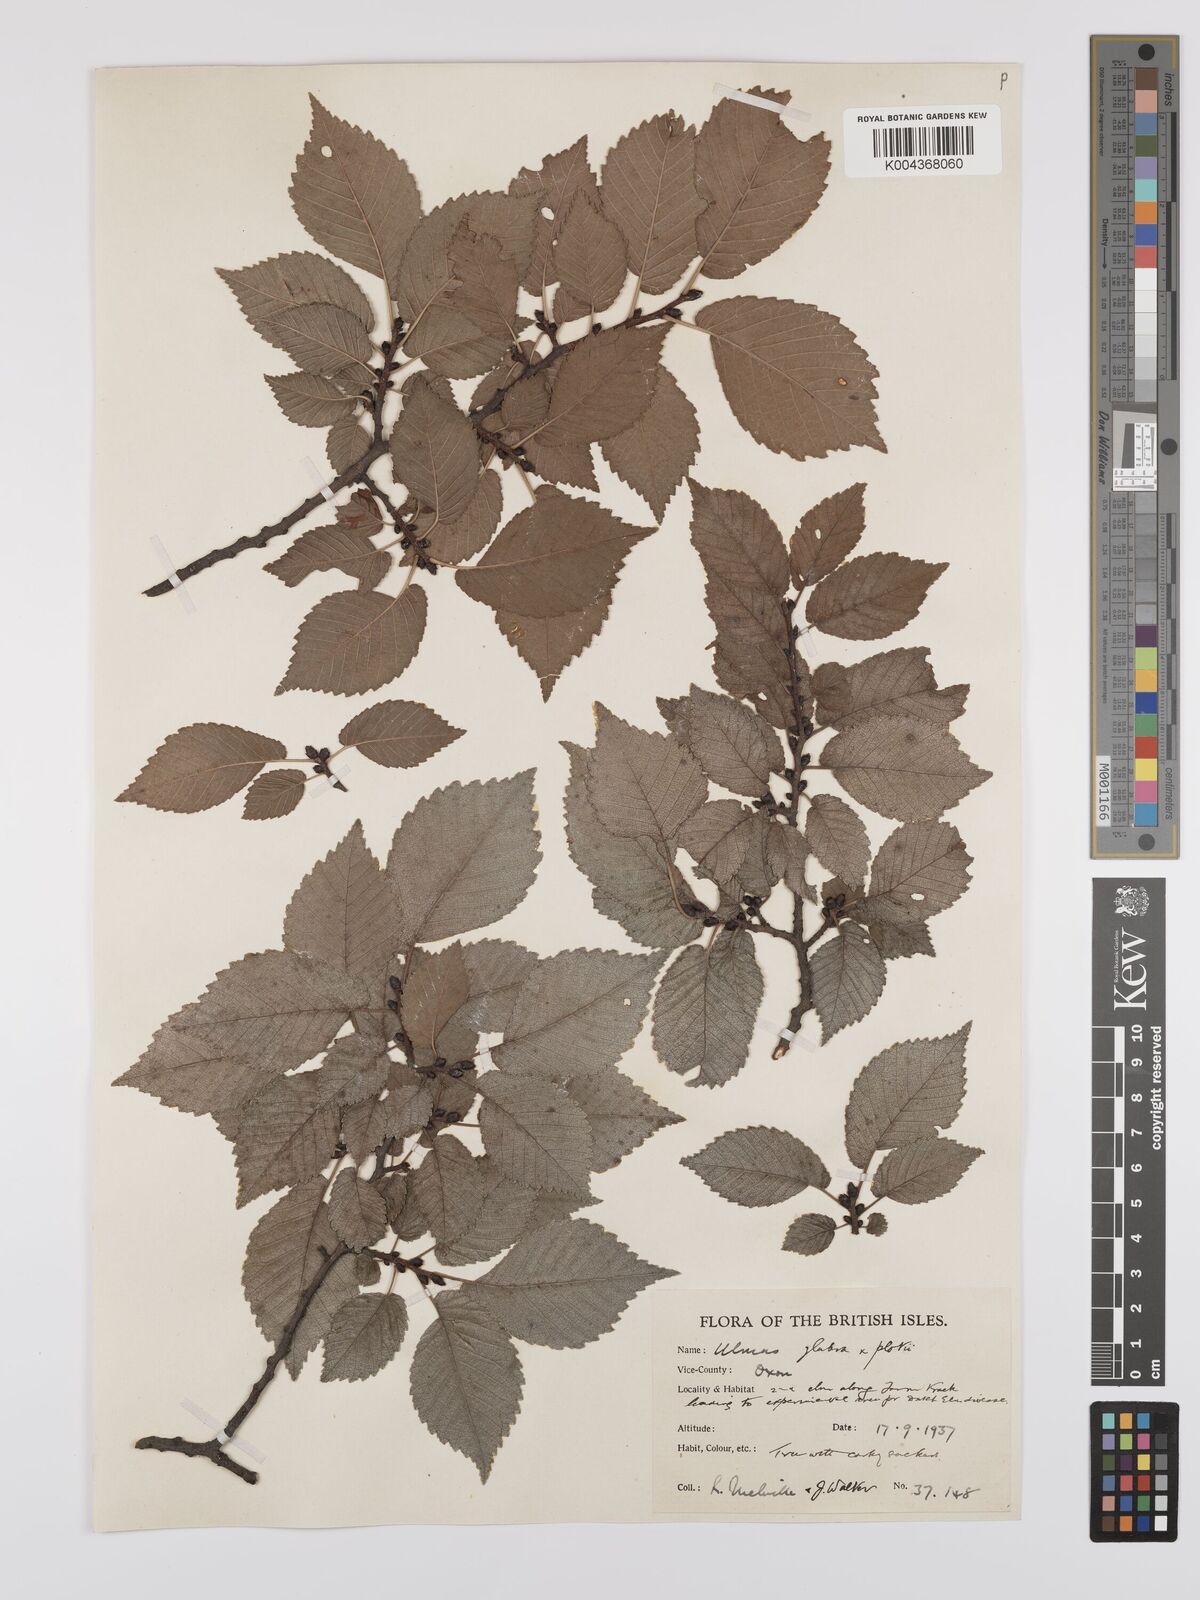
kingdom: Plantae
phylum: Tracheophyta
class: Magnoliopsida
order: Rosales
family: Ulmaceae
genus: Ulmus
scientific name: Ulmus
